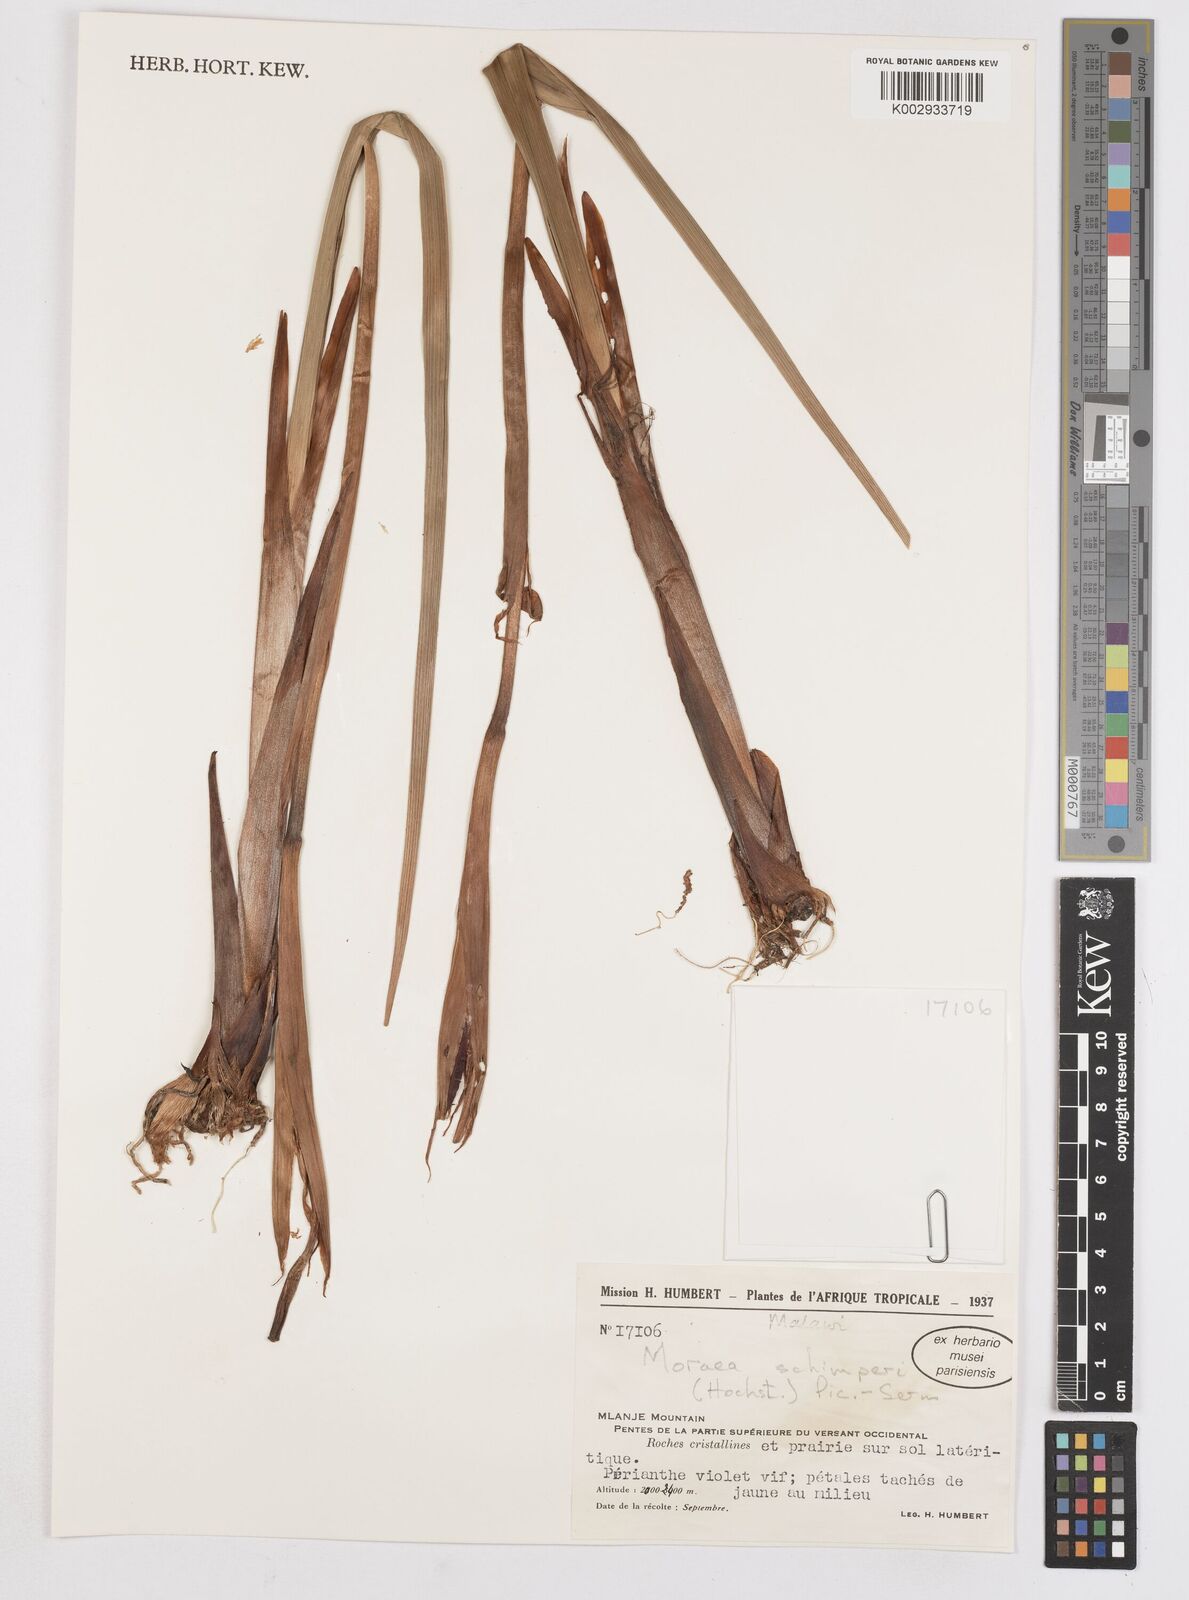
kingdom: Plantae
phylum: Tracheophyta
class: Liliopsida
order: Asparagales
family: Iridaceae
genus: Moraea
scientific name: Moraea schimperi
